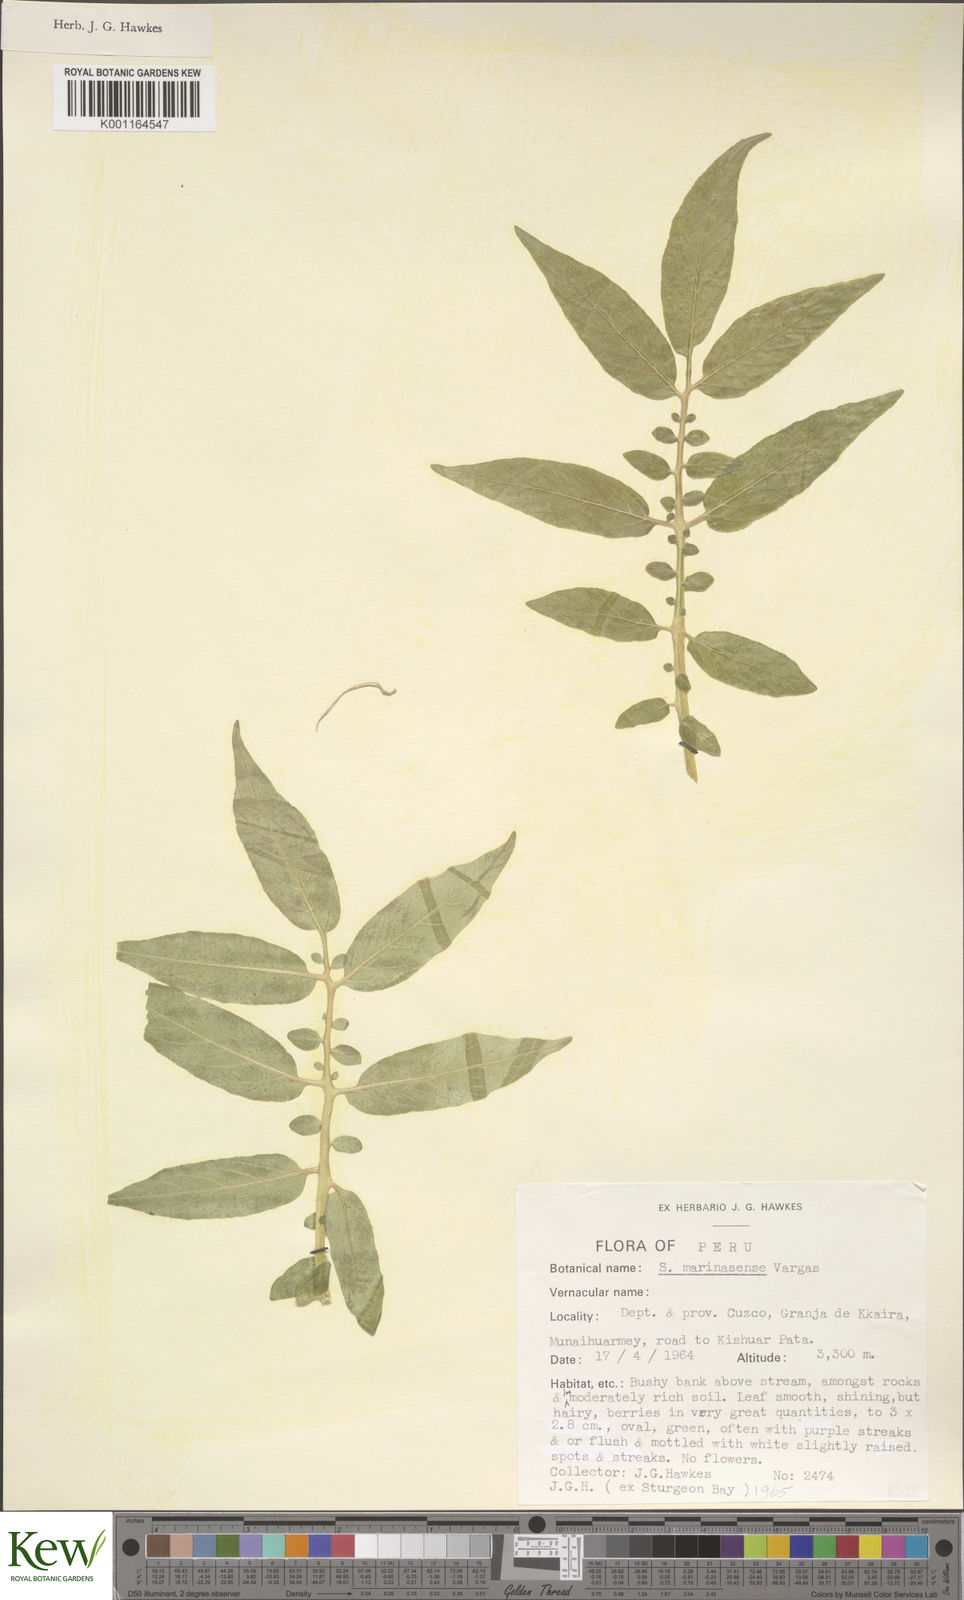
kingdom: Plantae
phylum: Tracheophyta
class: Magnoliopsida
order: Solanales
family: Solanaceae
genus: Solanum
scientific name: Solanum candolleanum
